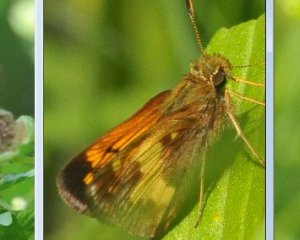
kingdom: Animalia
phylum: Arthropoda
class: Insecta
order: Lepidoptera
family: Hesperiidae
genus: Polites
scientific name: Polites coras
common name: Peck's Skipper
